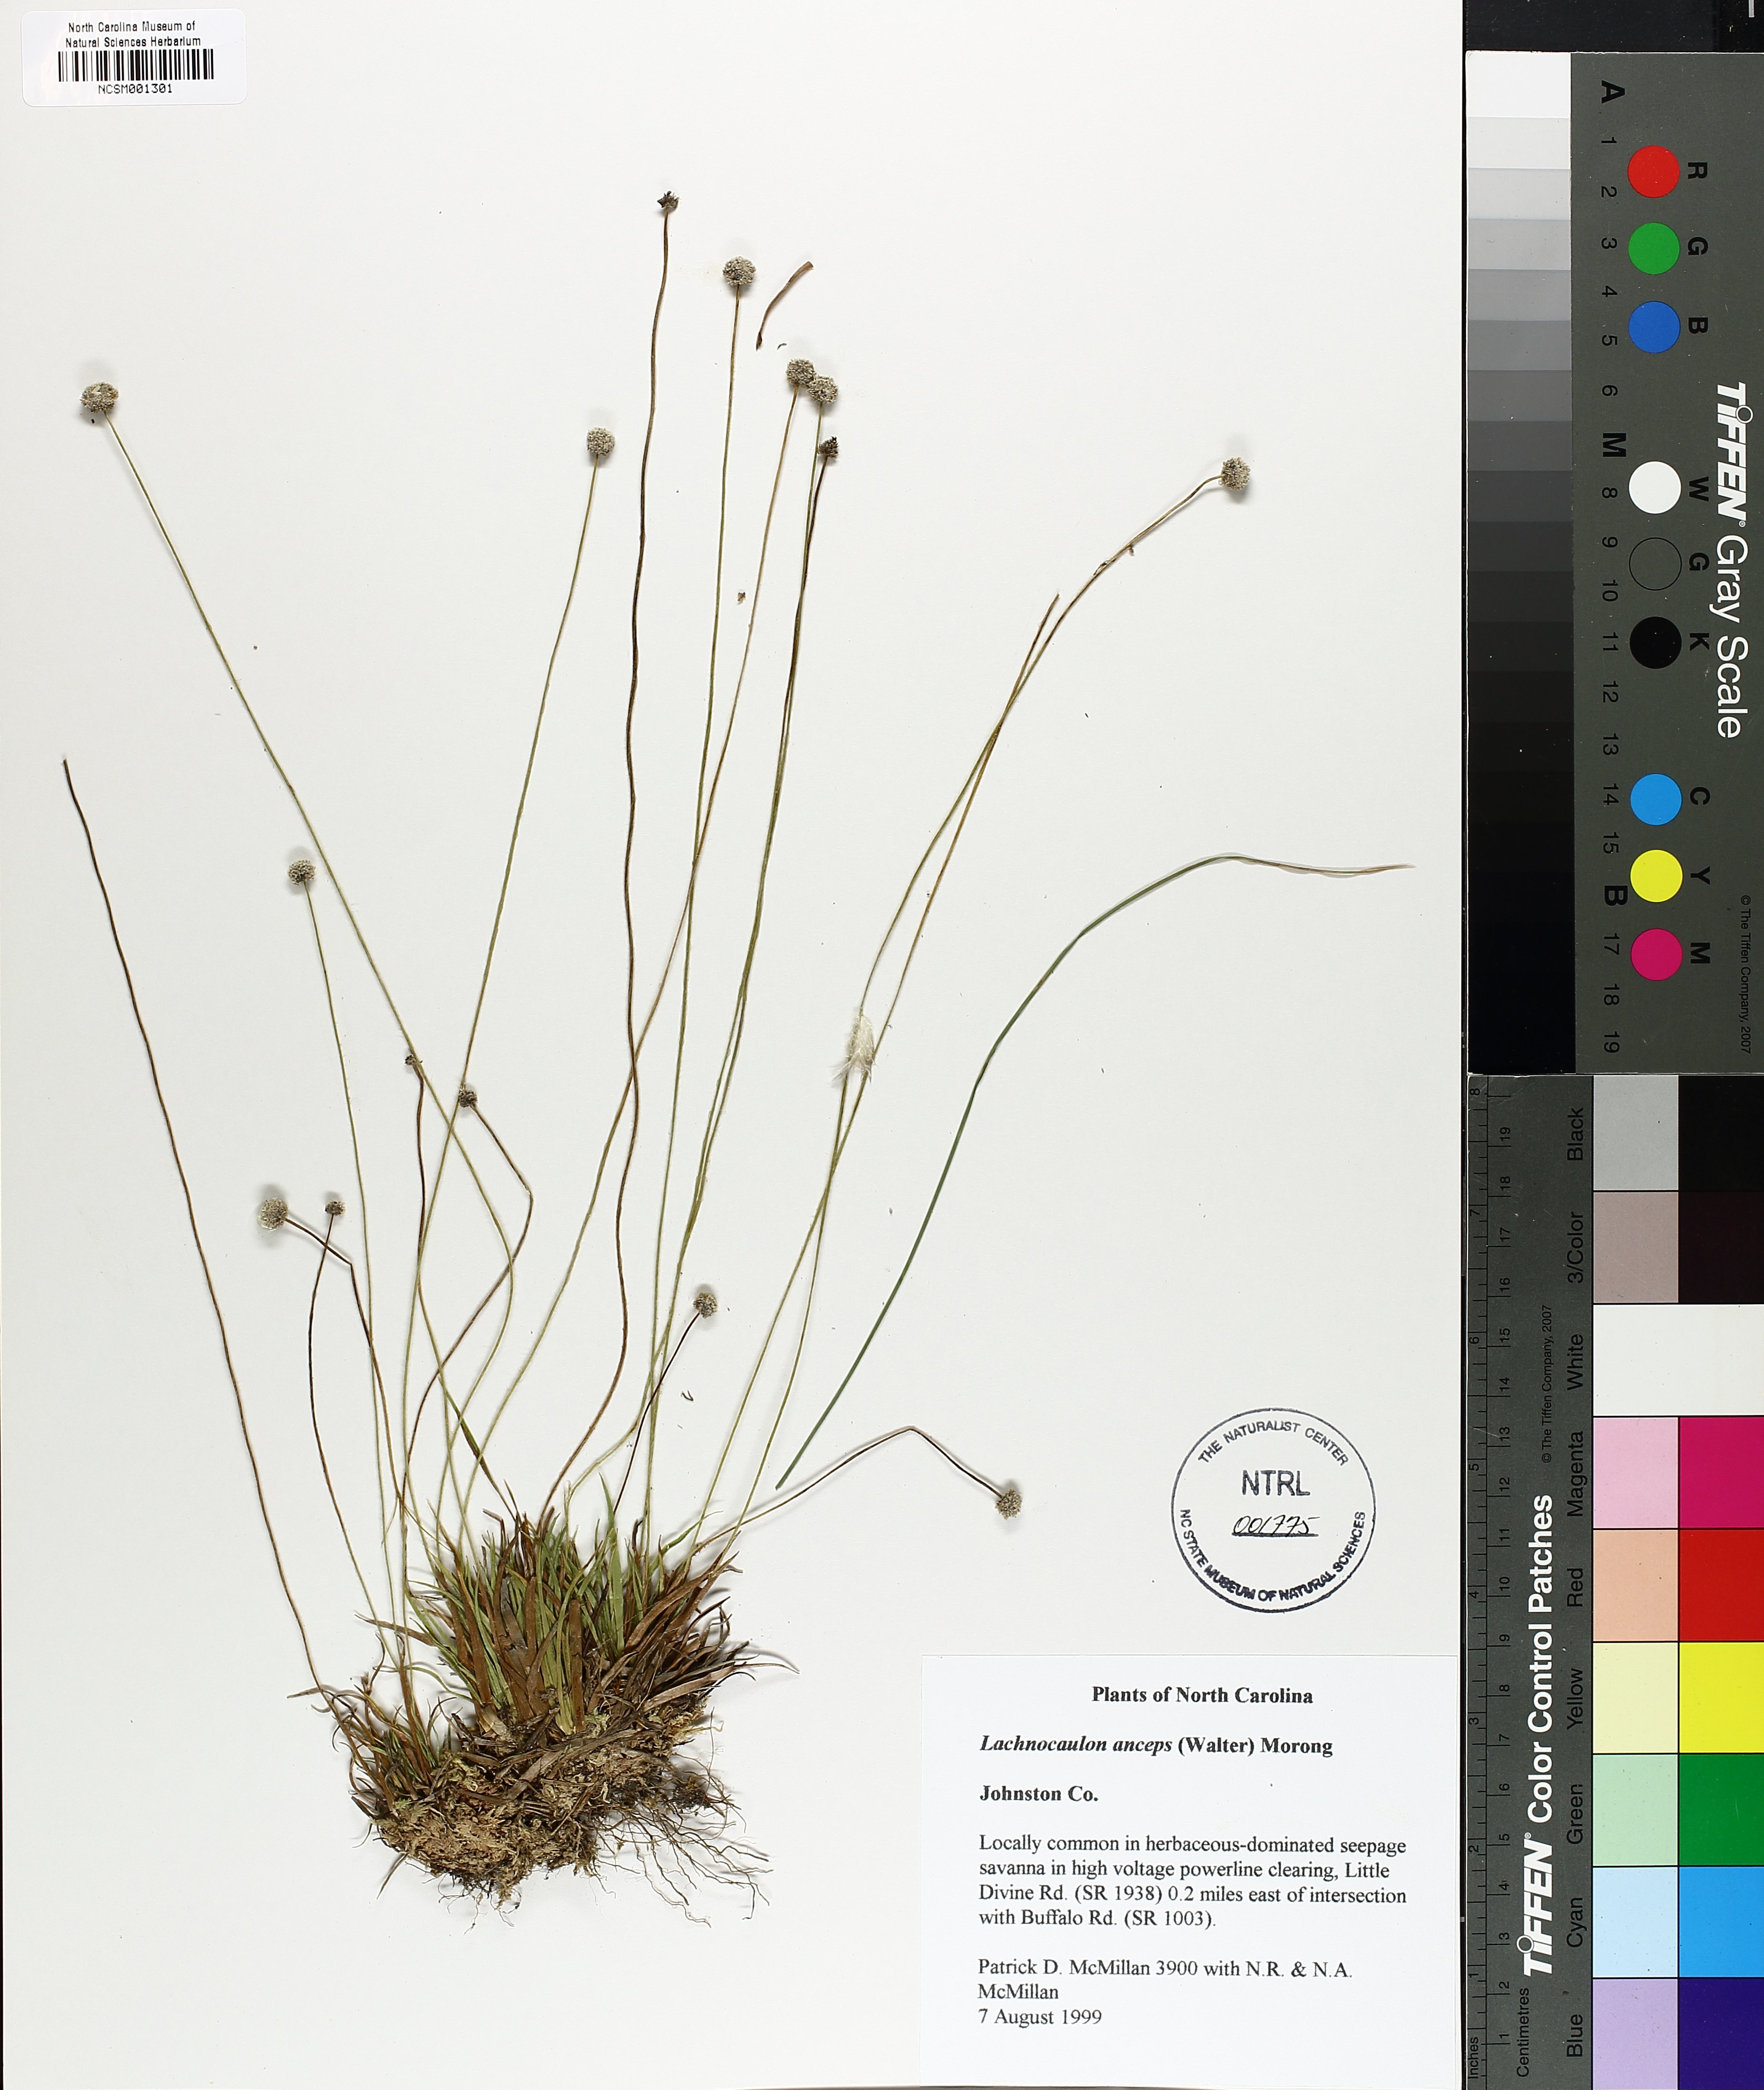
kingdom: Plantae
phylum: Tracheophyta
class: Liliopsida
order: Poales
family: Eriocaulaceae
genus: Paepalanthus
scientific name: Paepalanthus anceps
